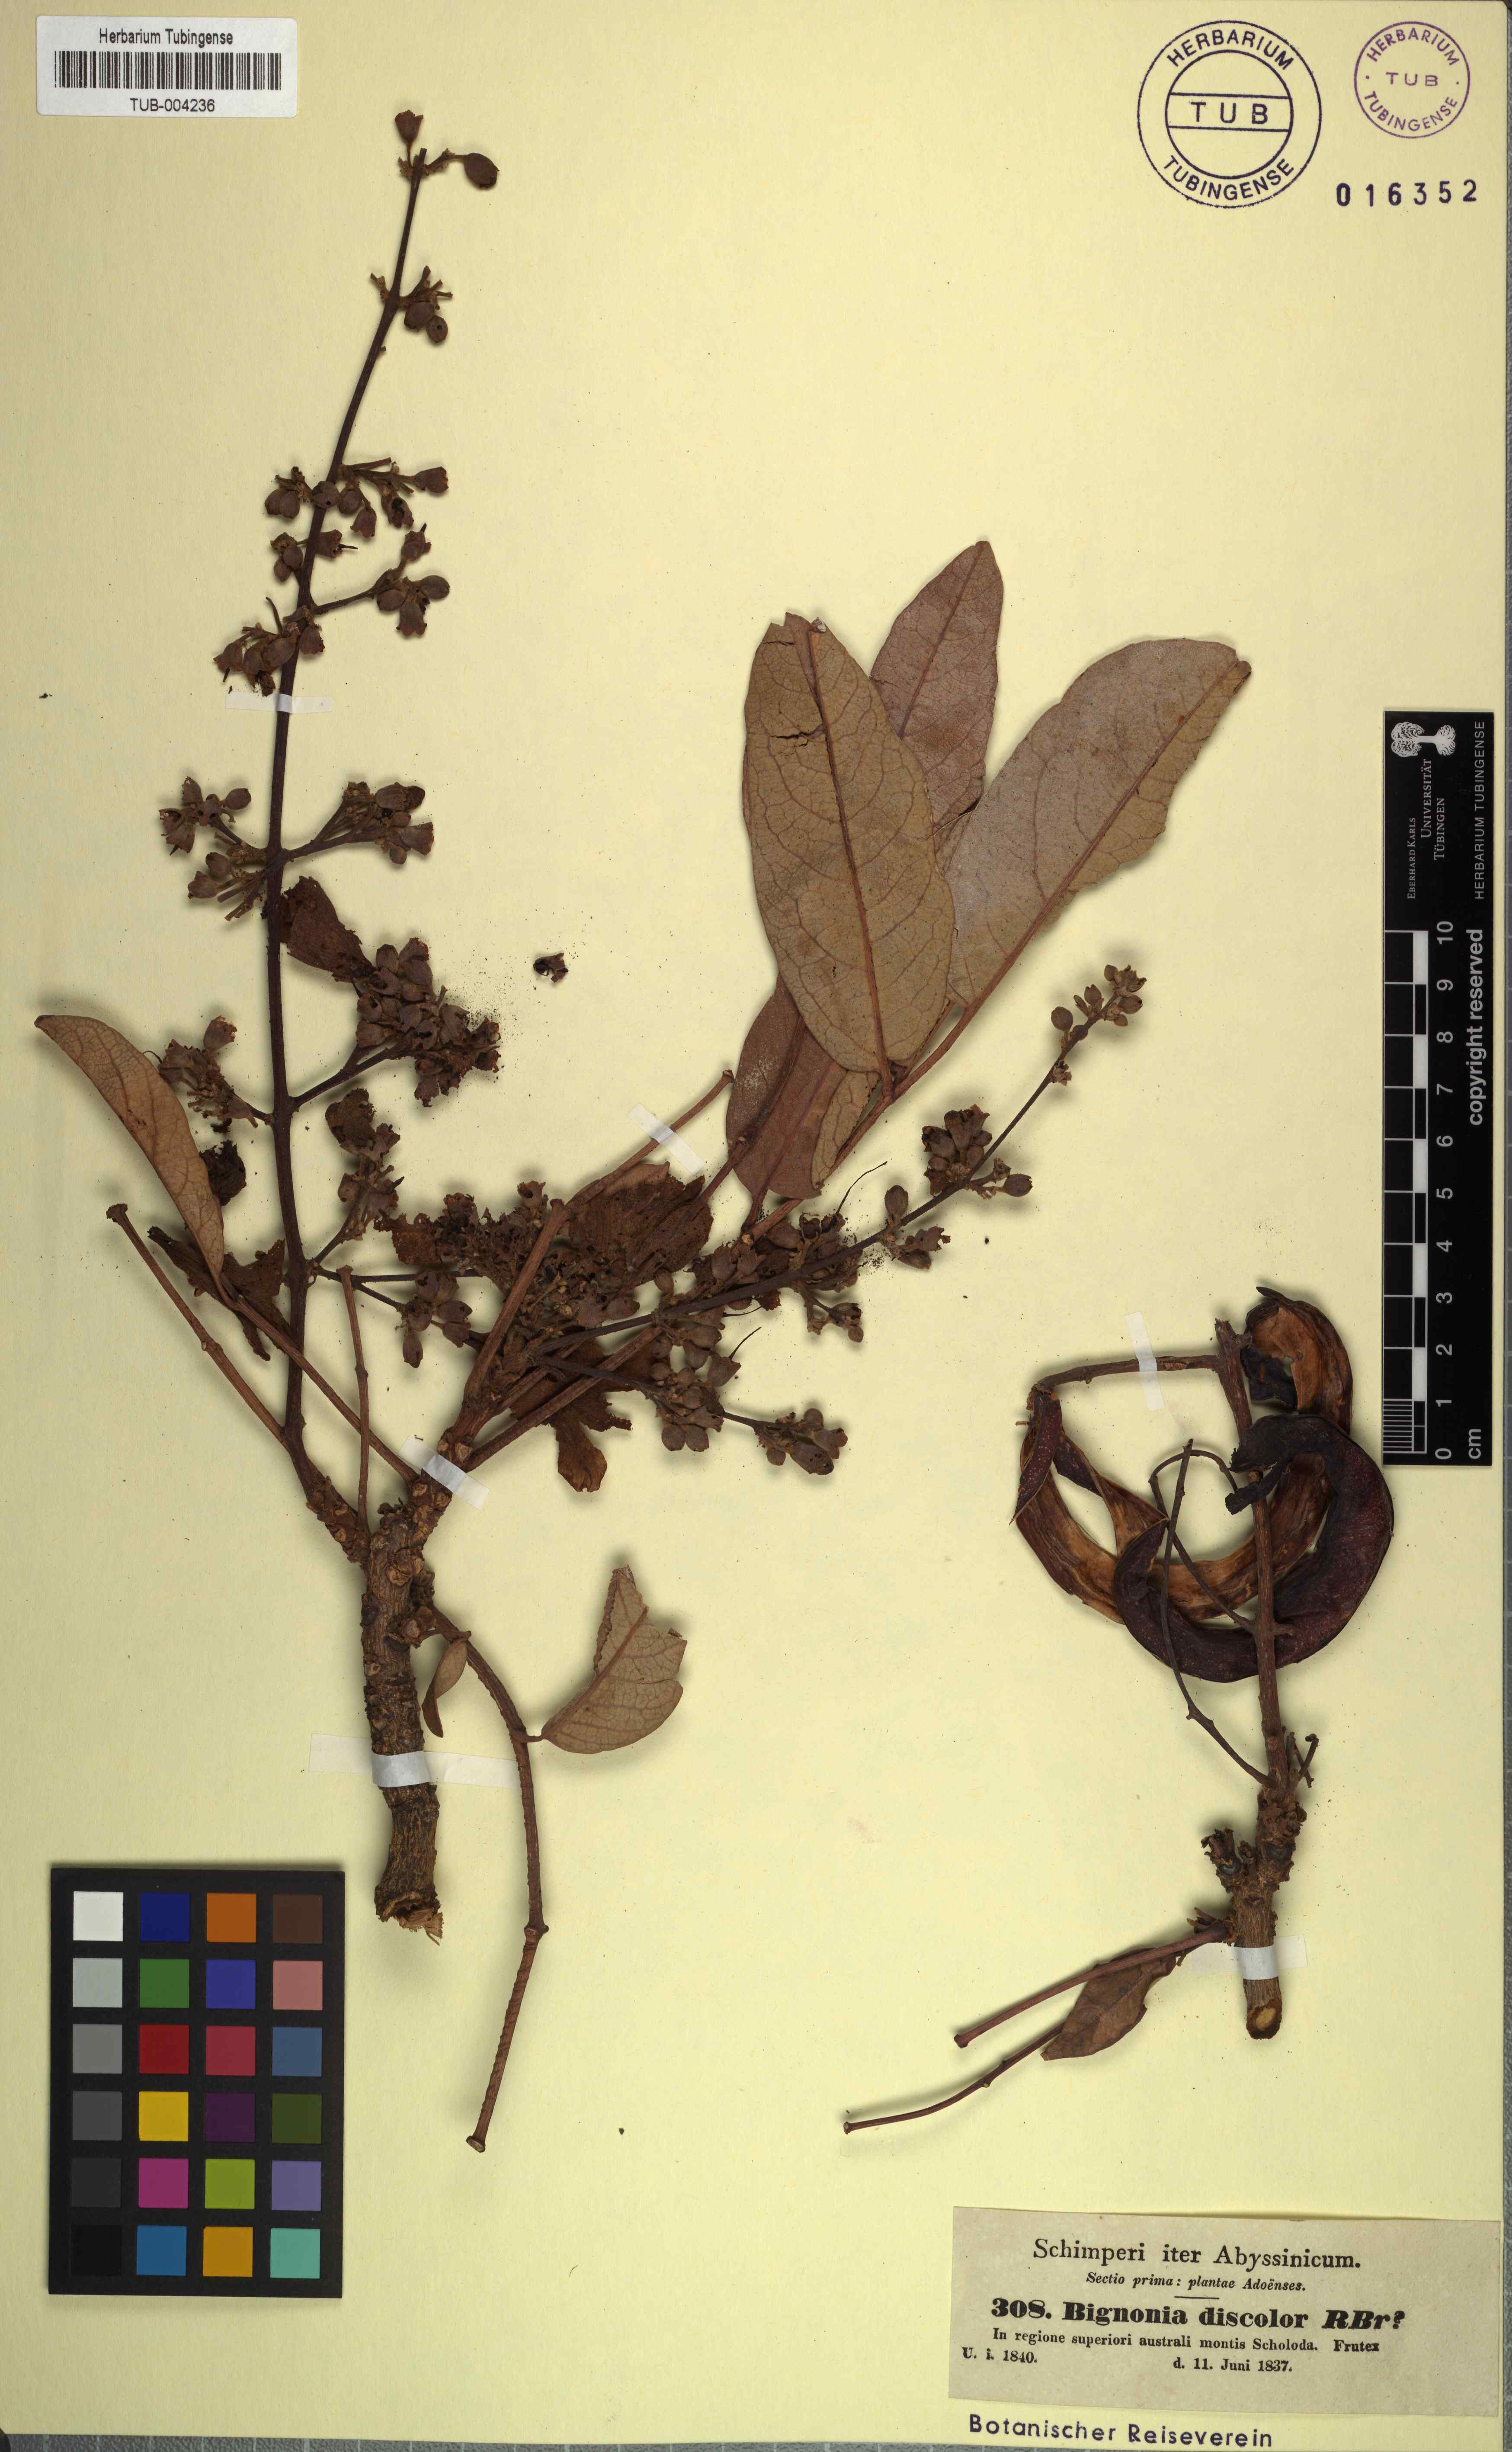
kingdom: Plantae
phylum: Tracheophyta
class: Magnoliopsida
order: Lamiales
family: Bignoniaceae
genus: Bignonia
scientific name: Bignonia discolor
